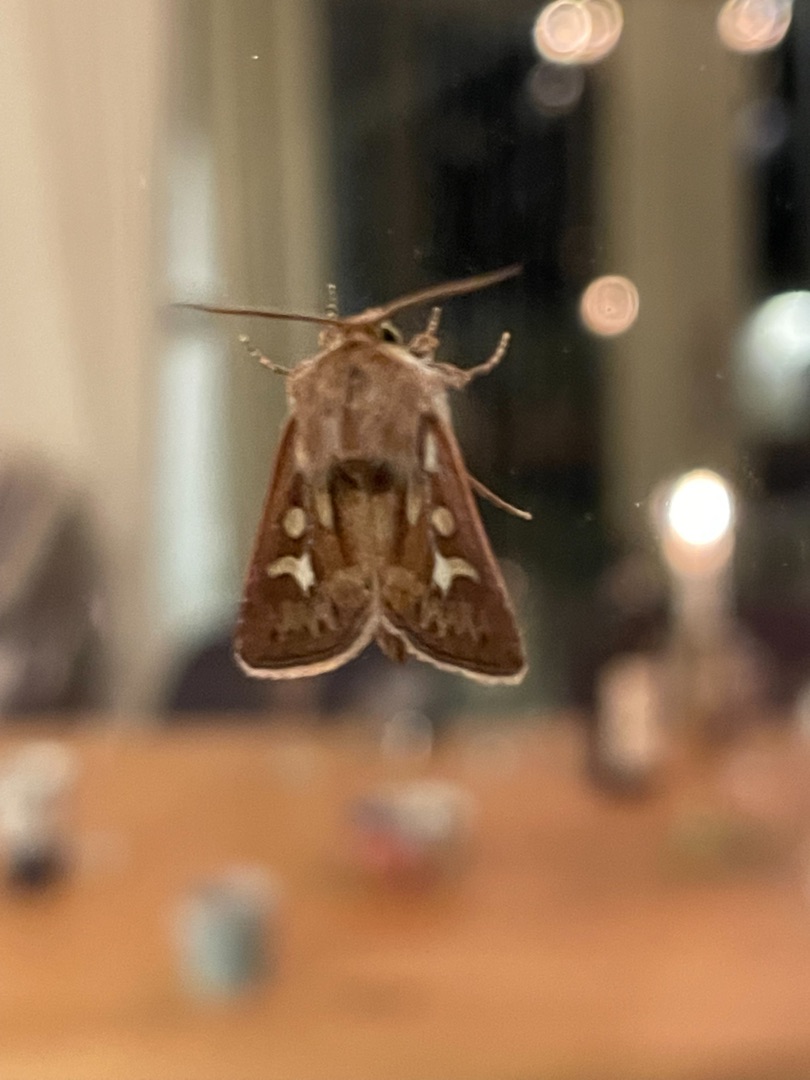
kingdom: Animalia
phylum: Arthropoda
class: Insecta
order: Lepidoptera
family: Noctuidae
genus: Cerapteryx
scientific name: Cerapteryx graminis
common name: Mosebunkeugle
